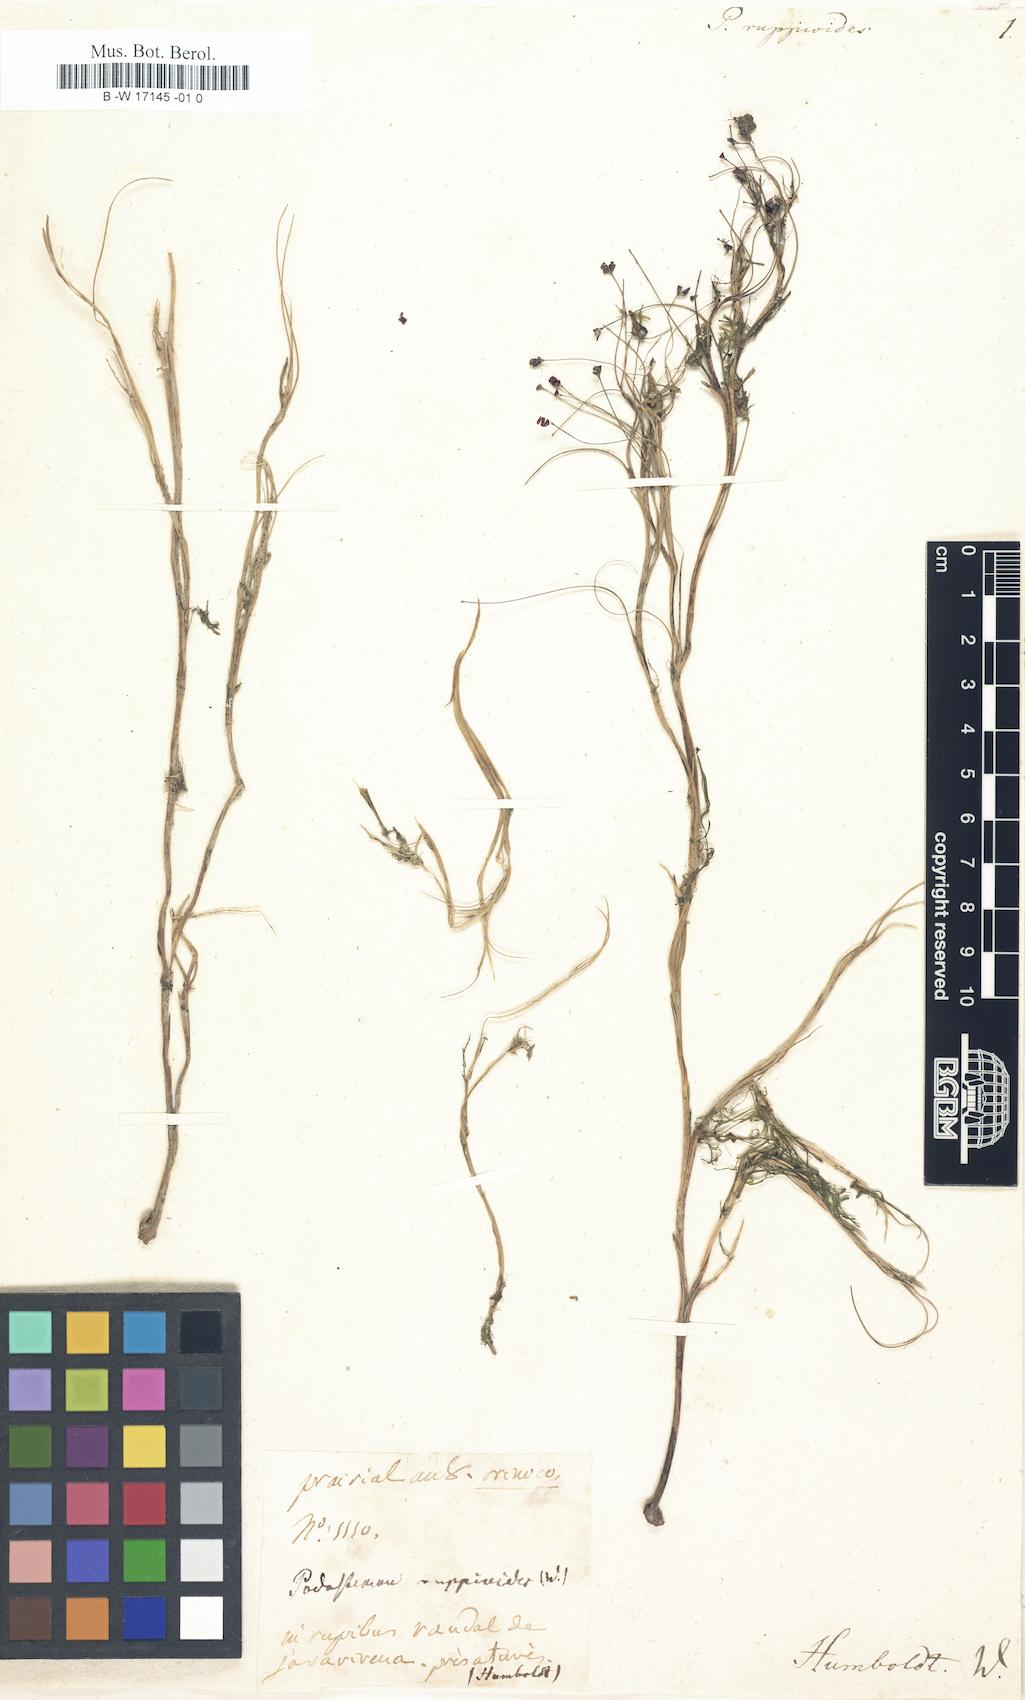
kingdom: Plantae
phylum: Tracheophyta
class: Magnoliopsida
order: Malpighiales
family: Podostemaceae
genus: Apinagia
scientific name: Apinagia ruppioides
